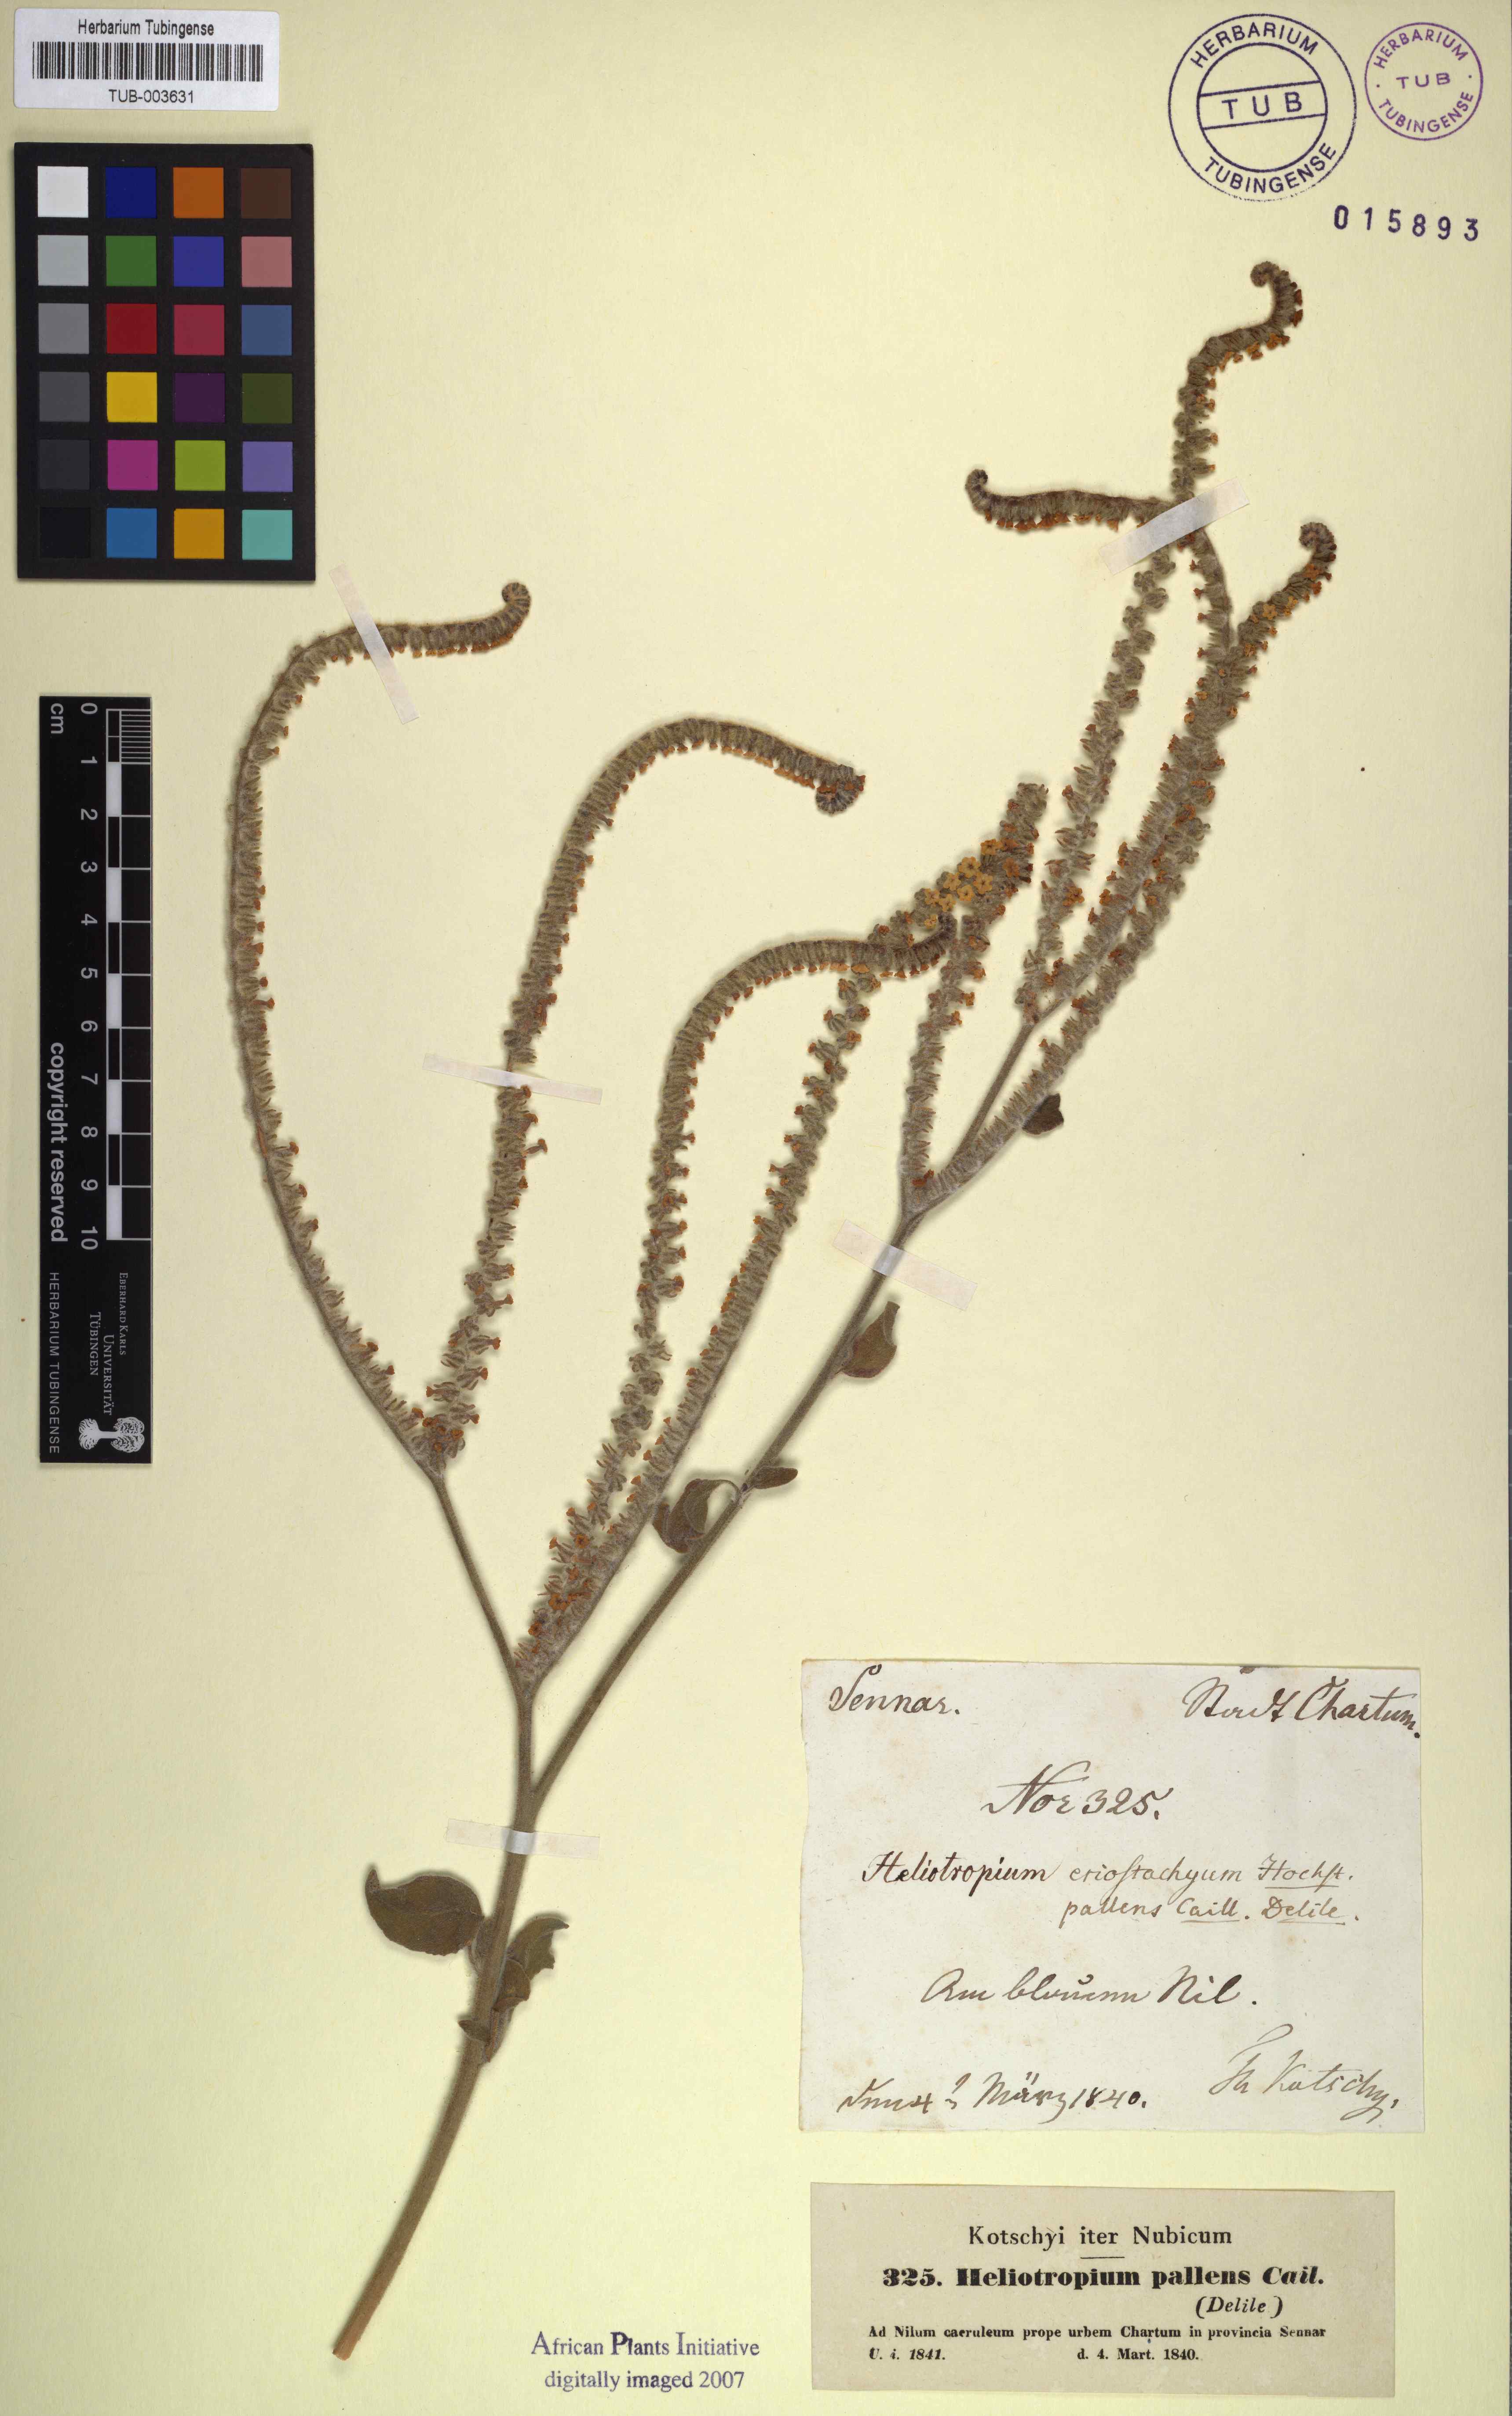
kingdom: Plantae
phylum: Tracheophyta
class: Magnoliopsida
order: Boraginales
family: Heliotropiaceae
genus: Heliotropium
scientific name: Heliotropium aegyptiacum
